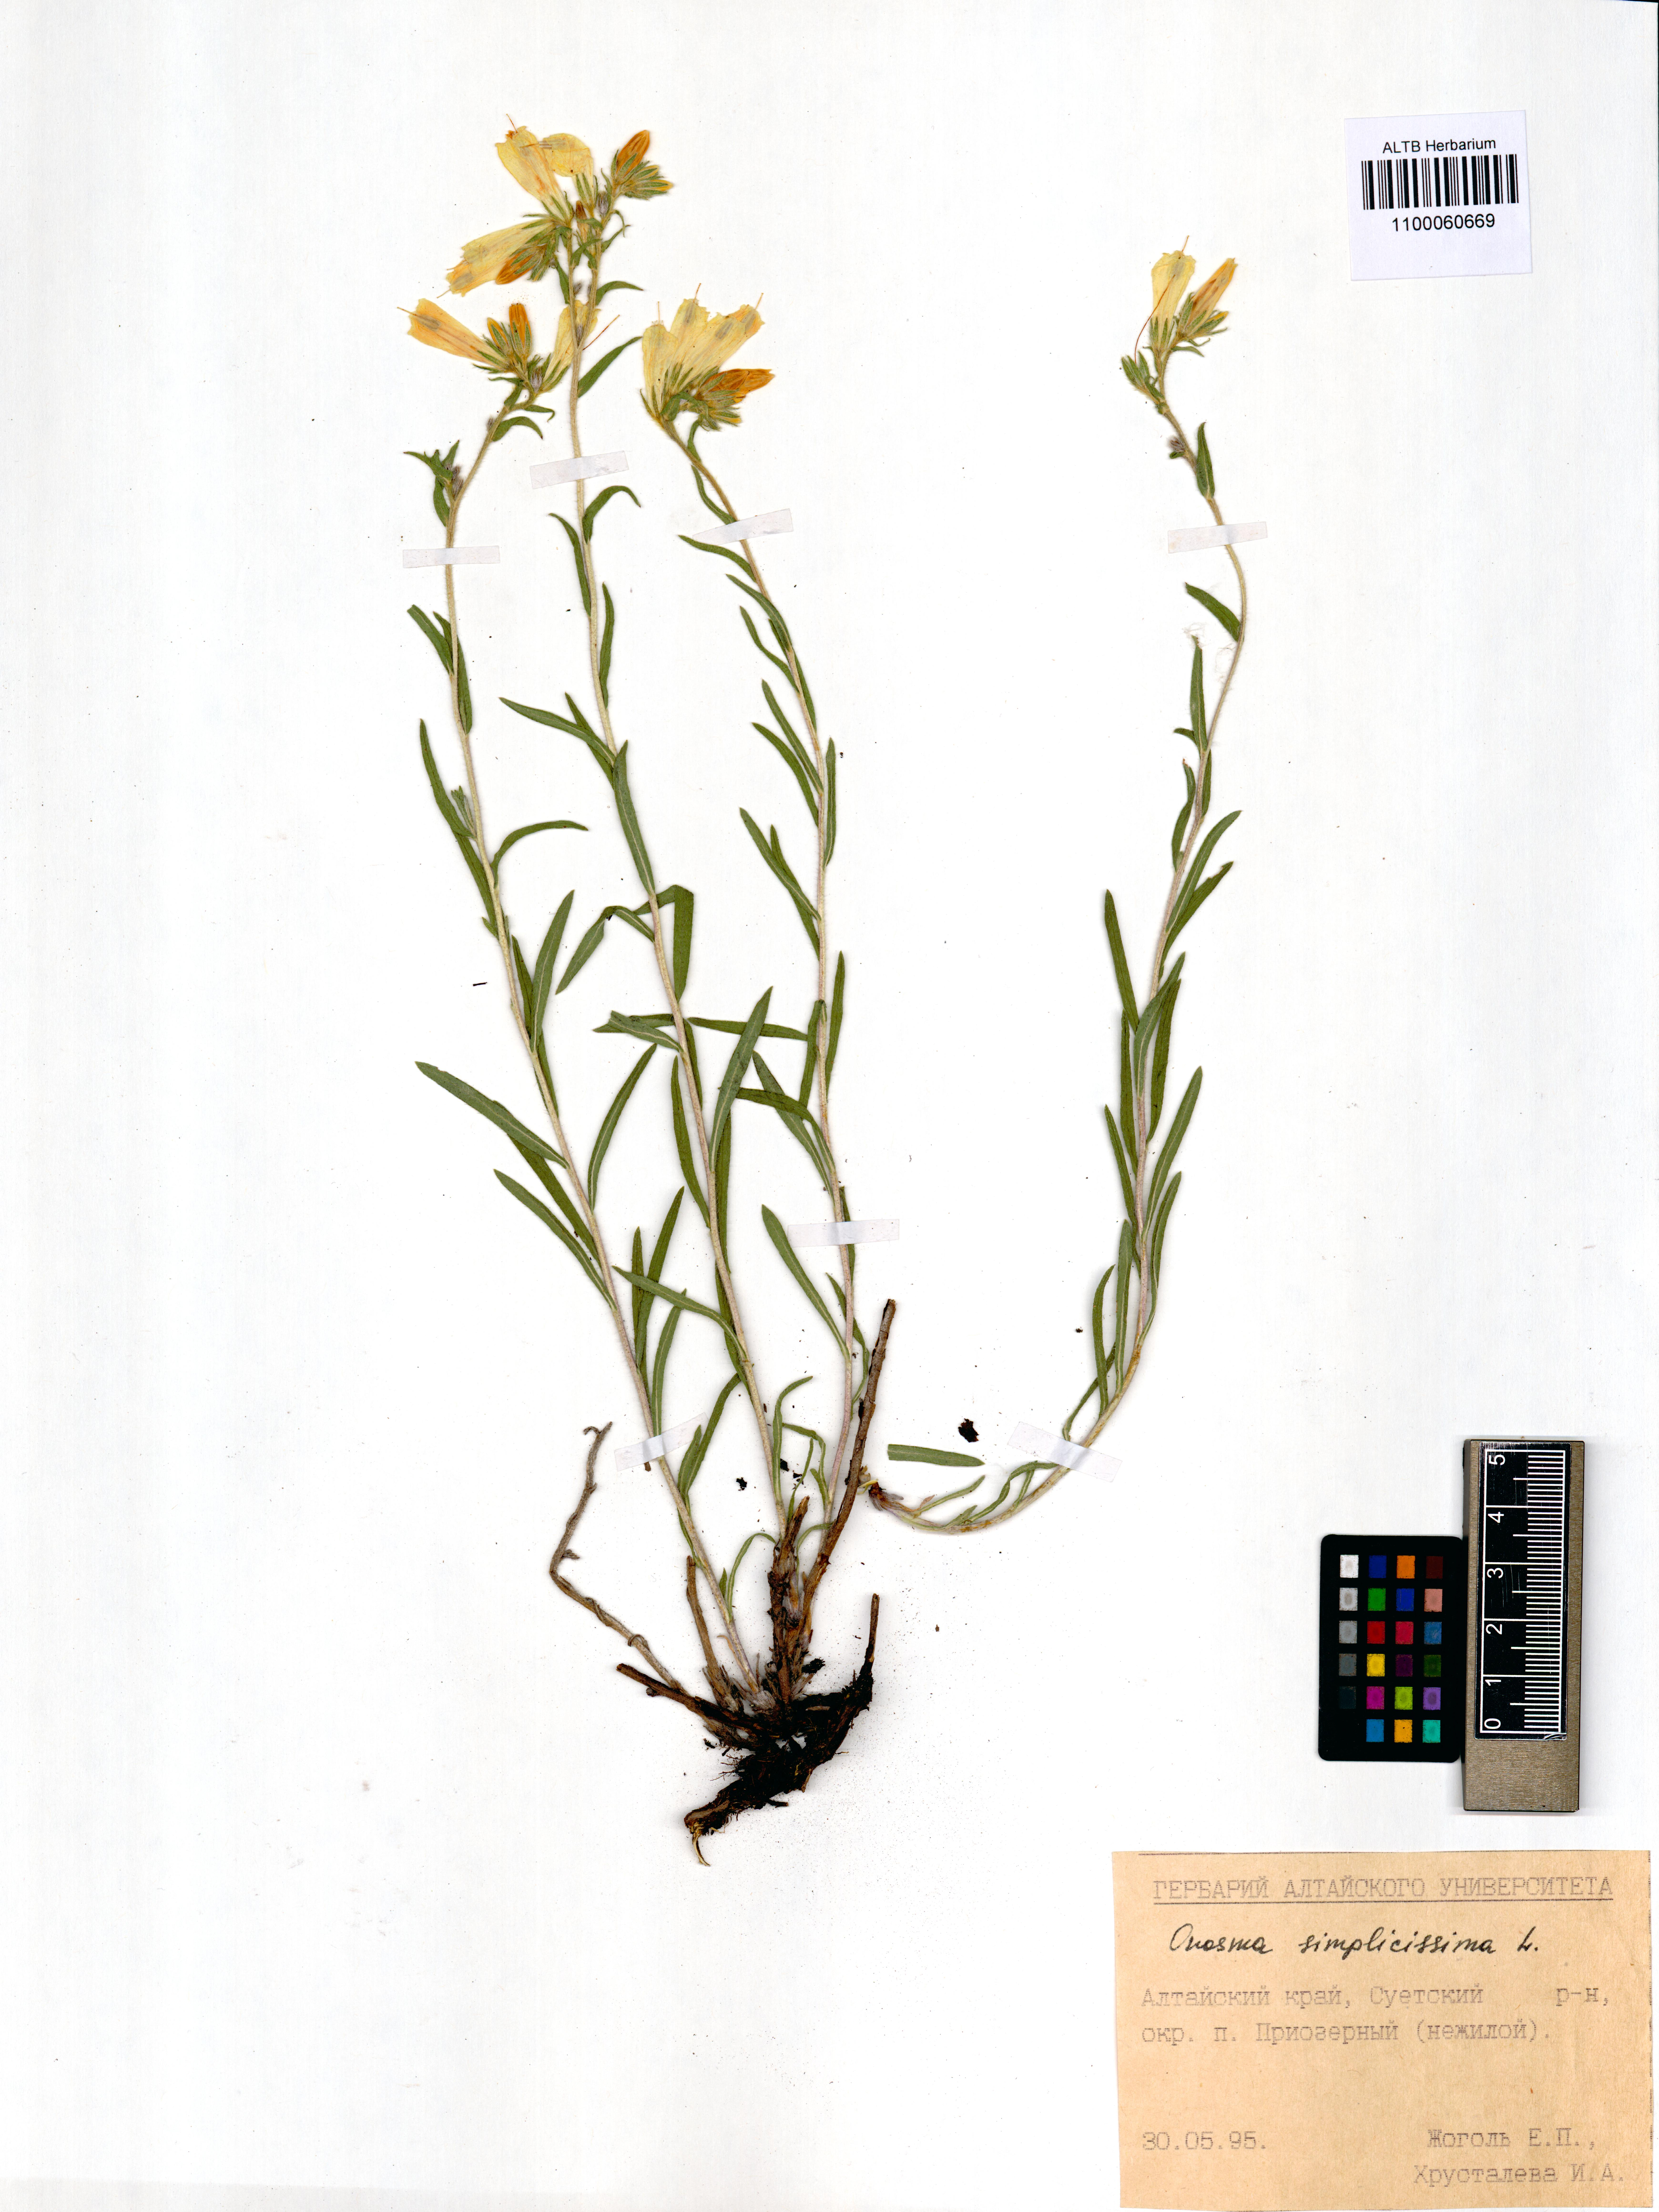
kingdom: Plantae
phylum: Tracheophyta
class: Magnoliopsida
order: Boraginales
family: Boraginaceae
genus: Onosma
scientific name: Onosma simplicissima
